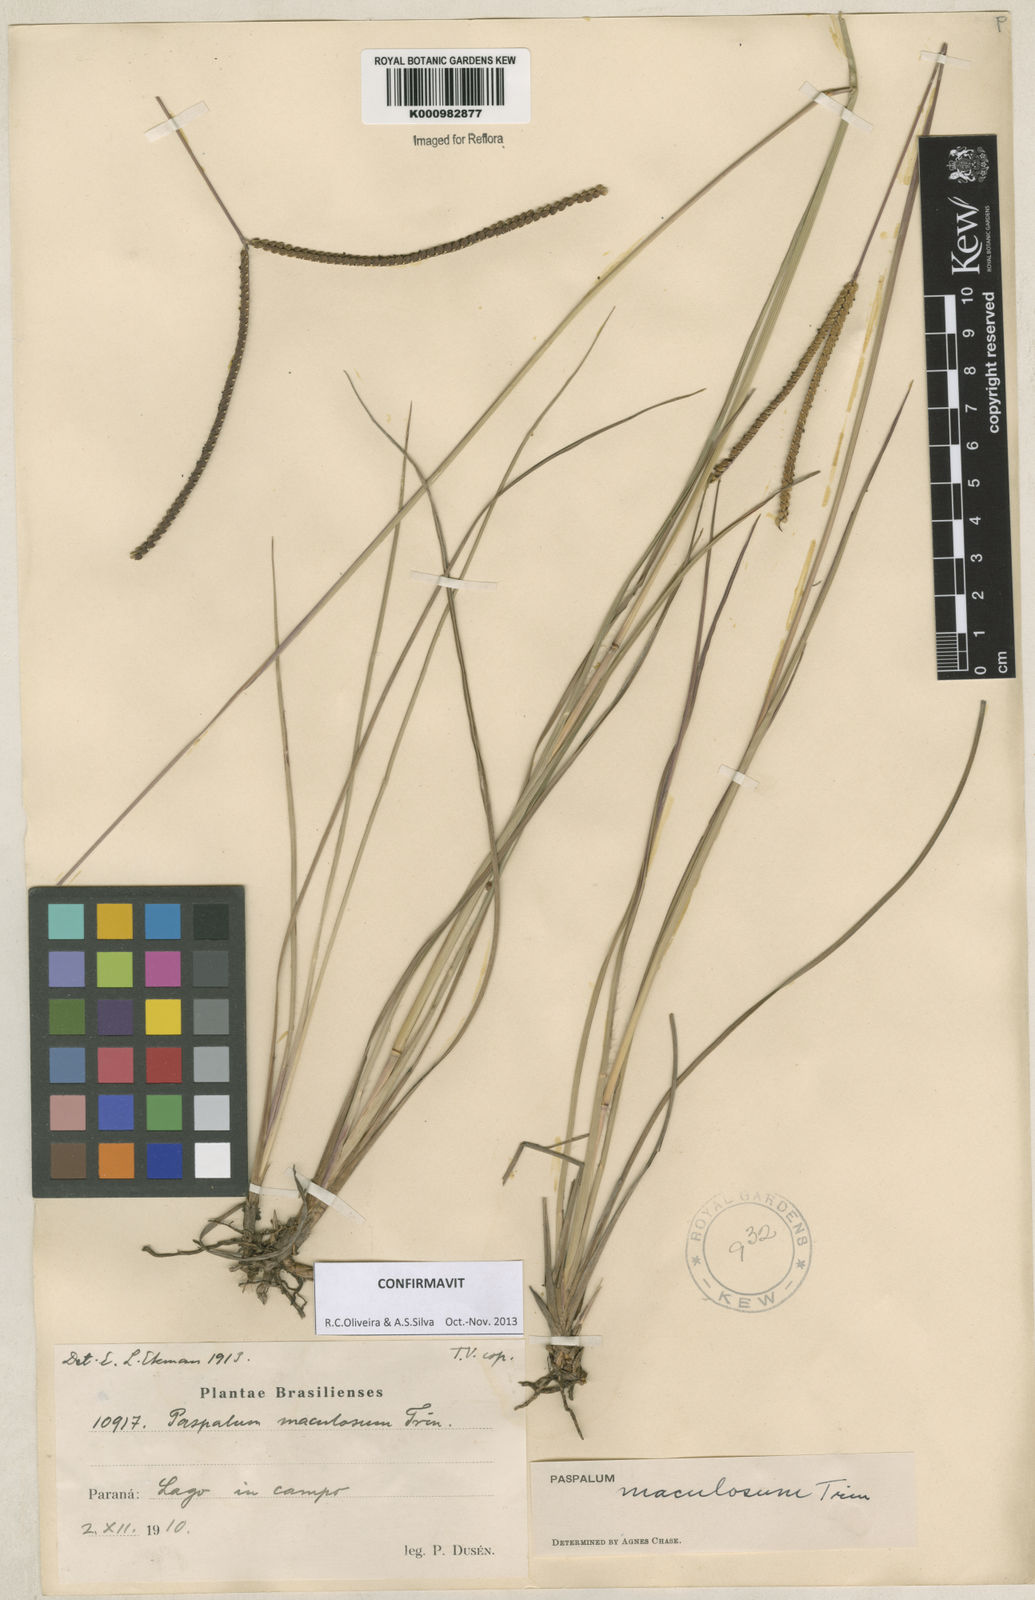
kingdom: Plantae
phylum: Tracheophyta
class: Liliopsida
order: Poales
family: Poaceae
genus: Paspalum
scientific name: Paspalum maculosum
